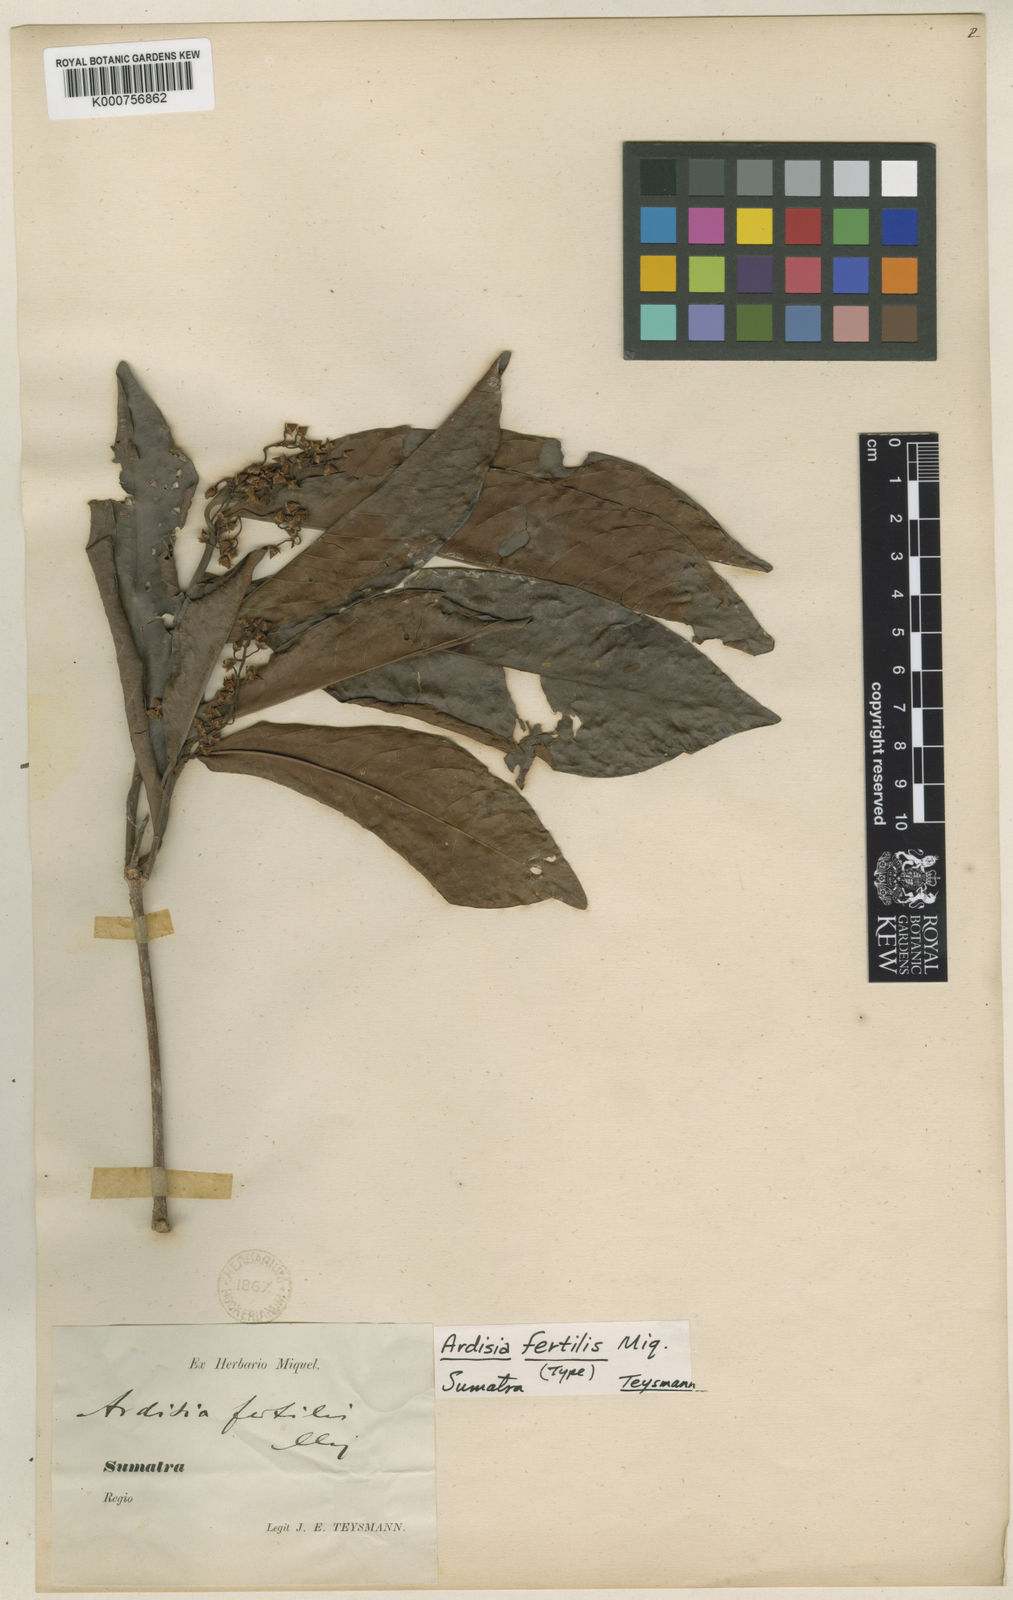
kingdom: Plantae
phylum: Tracheophyta
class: Magnoliopsida
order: Ericales
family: Primulaceae
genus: Ardisia
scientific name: Ardisia sumatrana
